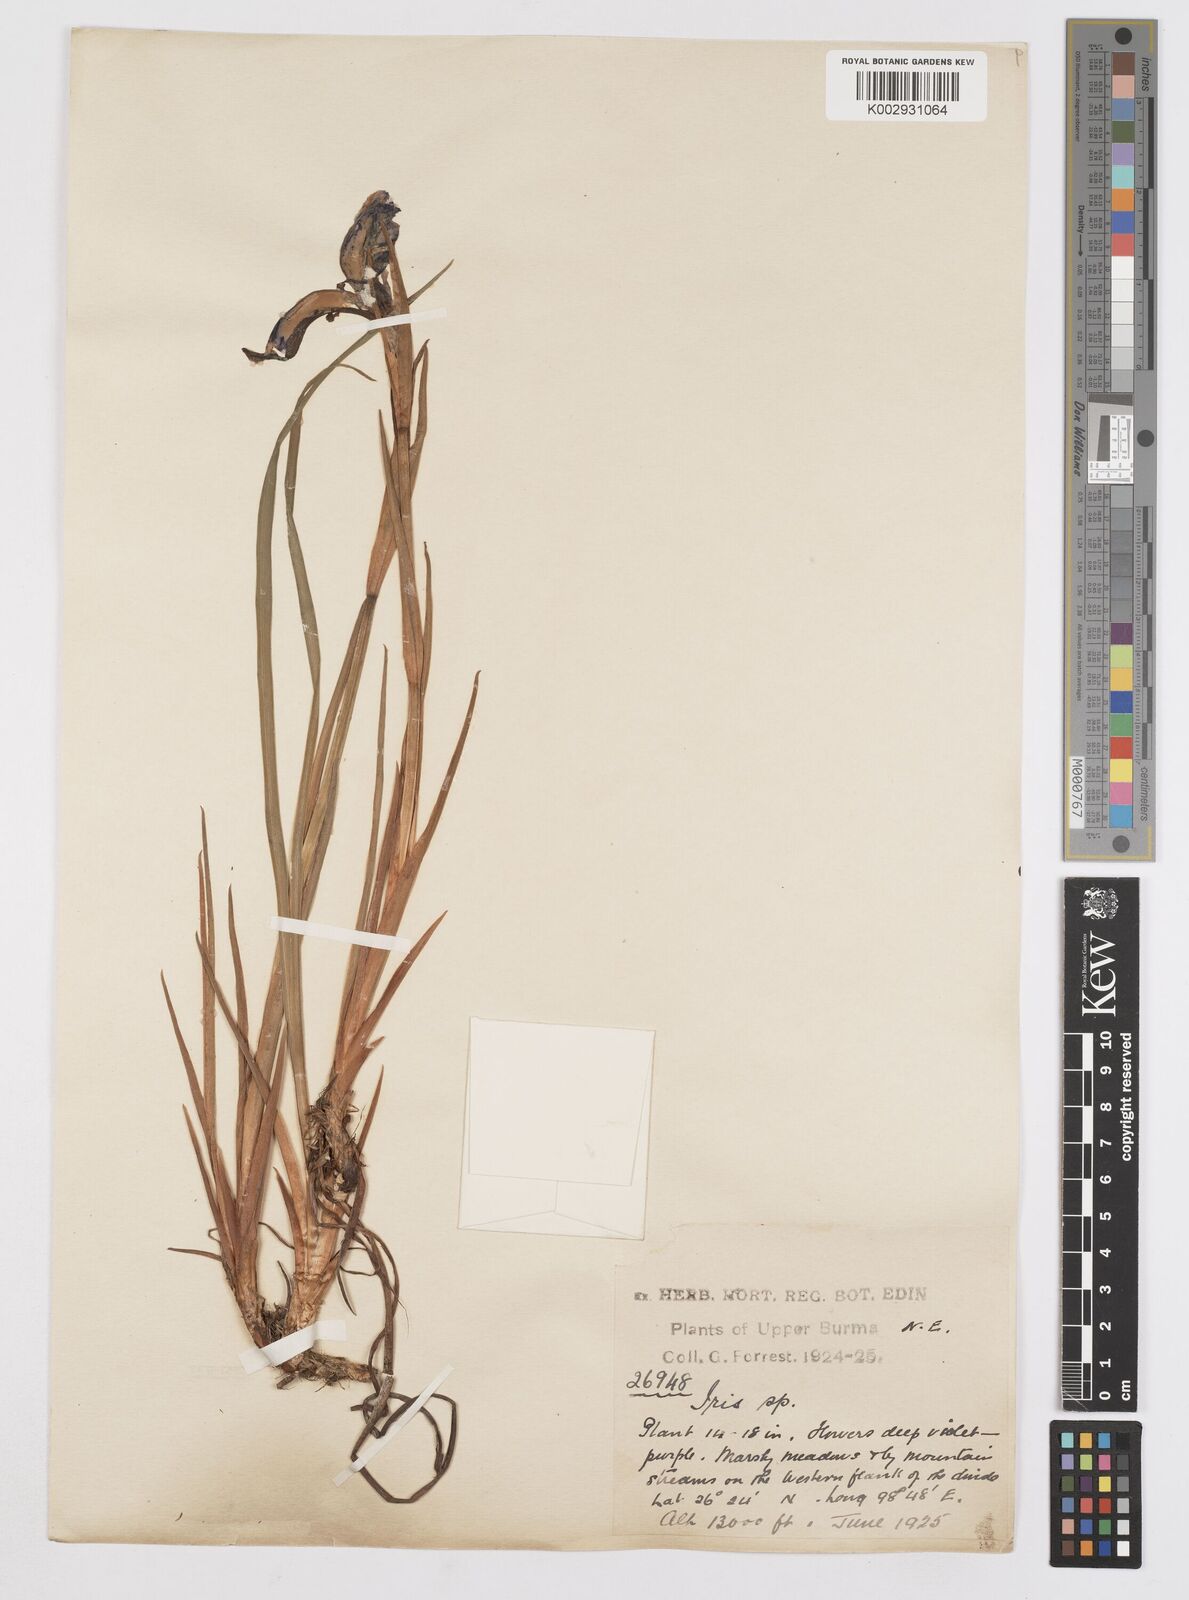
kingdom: Plantae
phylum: Tracheophyta
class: Liliopsida
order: Asparagales
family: Iridaceae
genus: Iris
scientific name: Iris bulleyana
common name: Southwest iris
